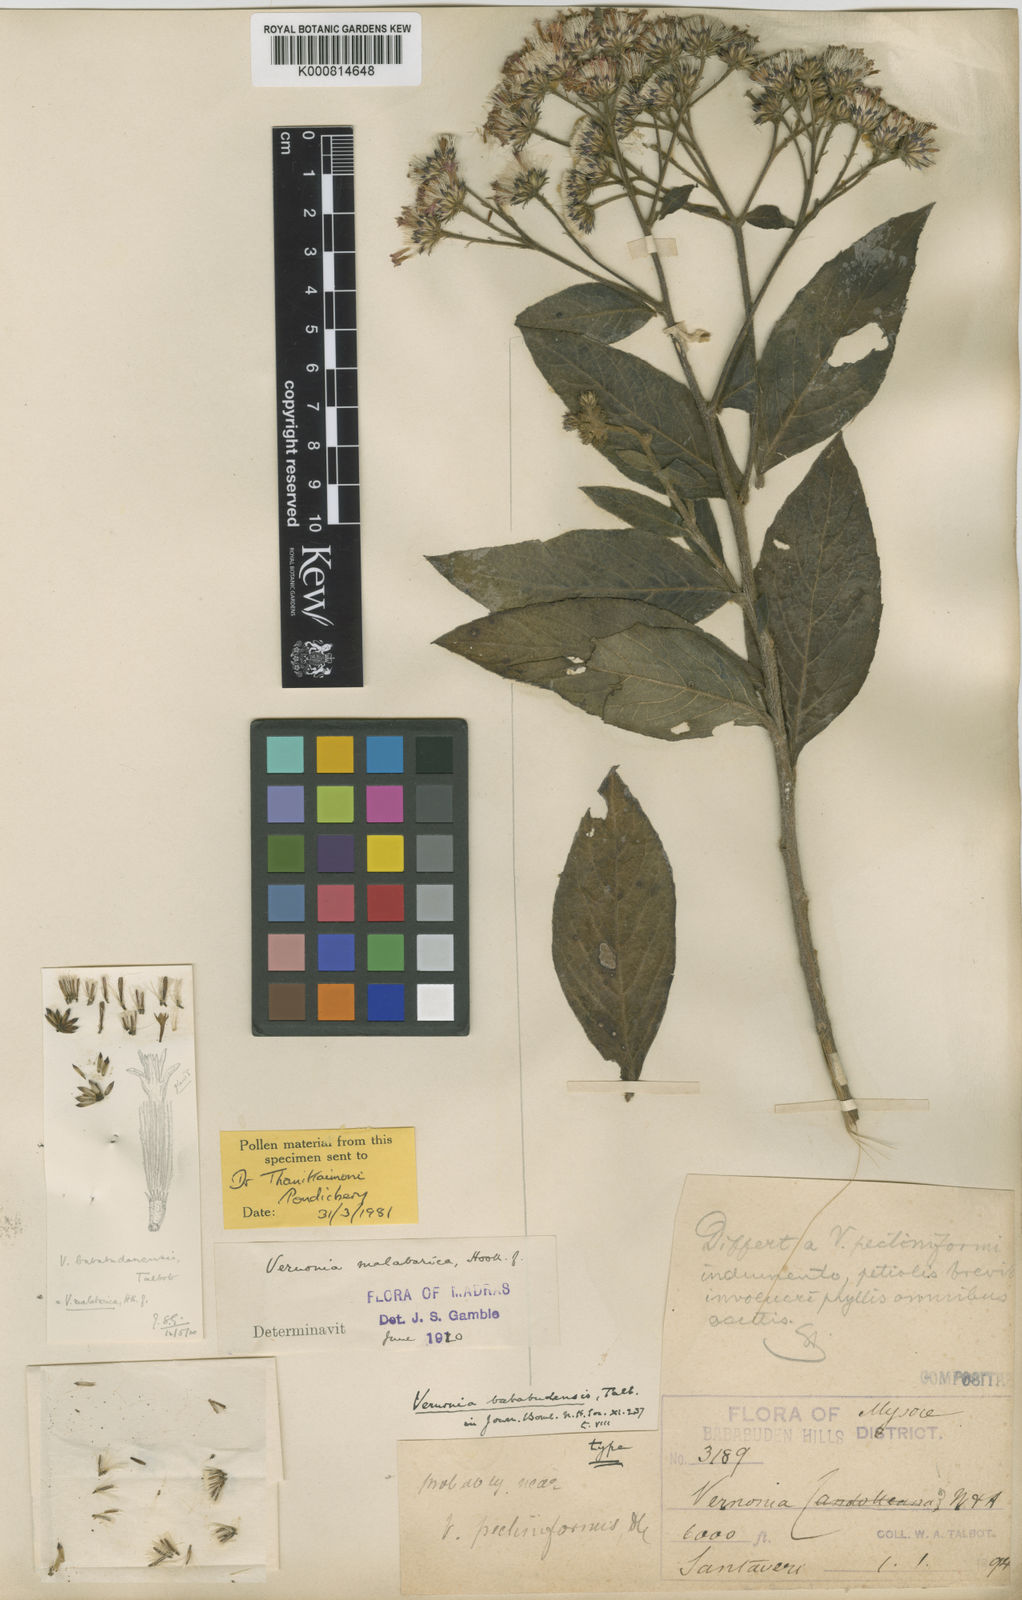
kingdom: Plantae
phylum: Tracheophyta
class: Magnoliopsida
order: Asterales
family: Asteraceae
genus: Uniyala
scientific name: Uniyala malabarica
